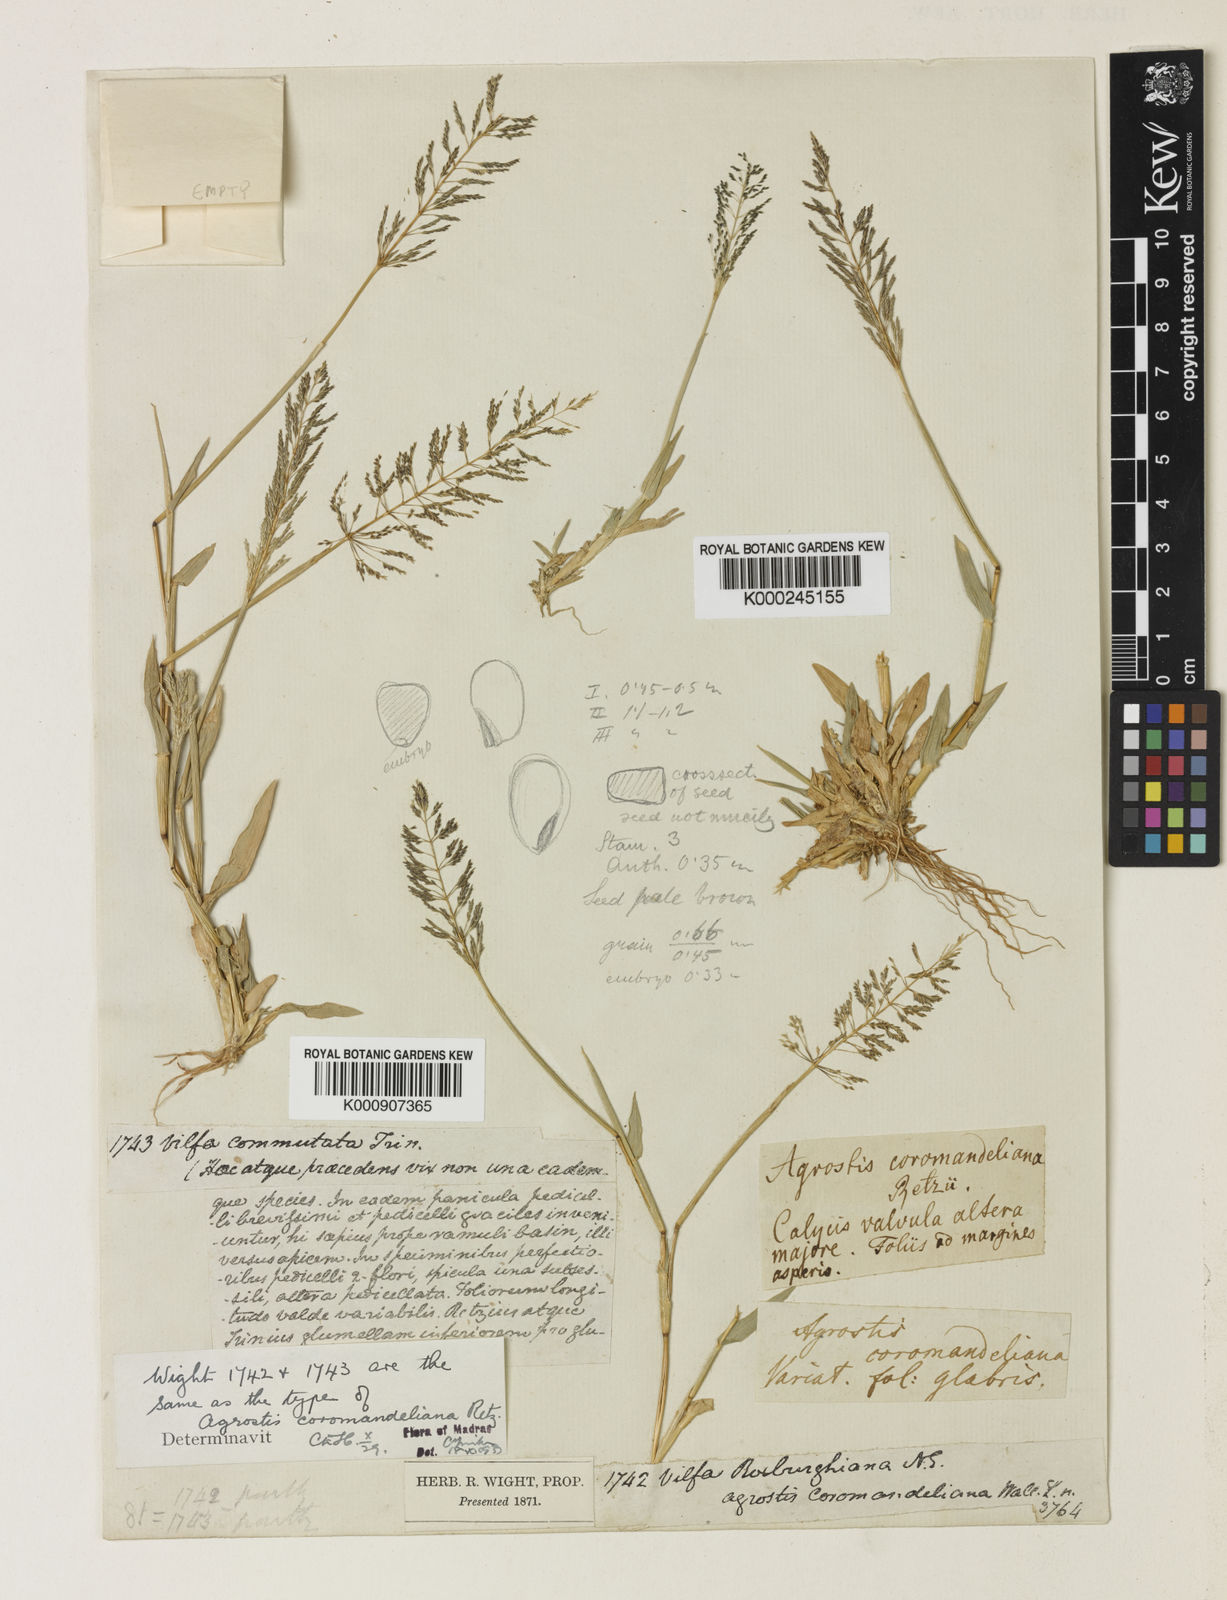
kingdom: Plantae
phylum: Tracheophyta
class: Liliopsida
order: Poales
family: Poaceae
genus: Sporobolus
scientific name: Sporobolus coromandelianus
